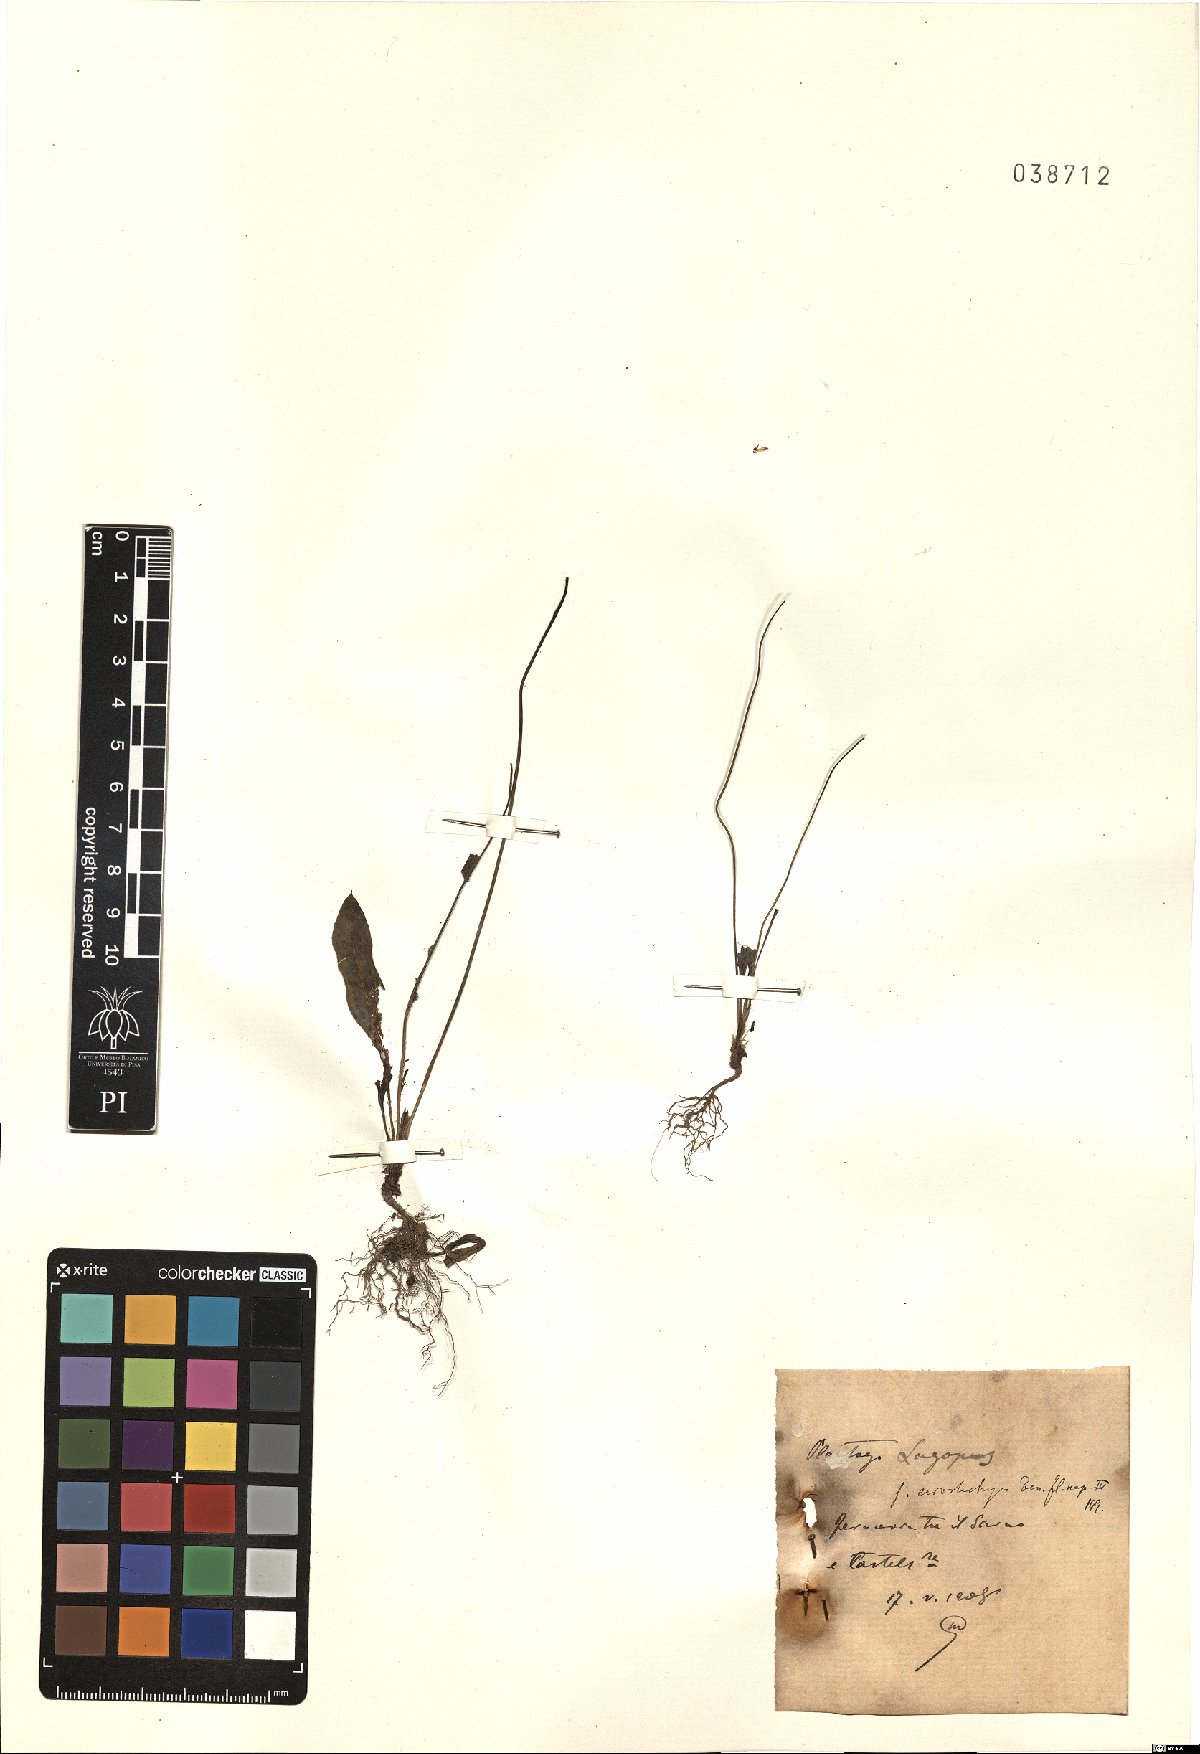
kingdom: Plantae
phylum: Tracheophyta
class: Magnoliopsida
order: Lamiales
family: Plantaginaceae
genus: Plantago
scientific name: Plantago lagopus
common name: Hare-foot plantain
